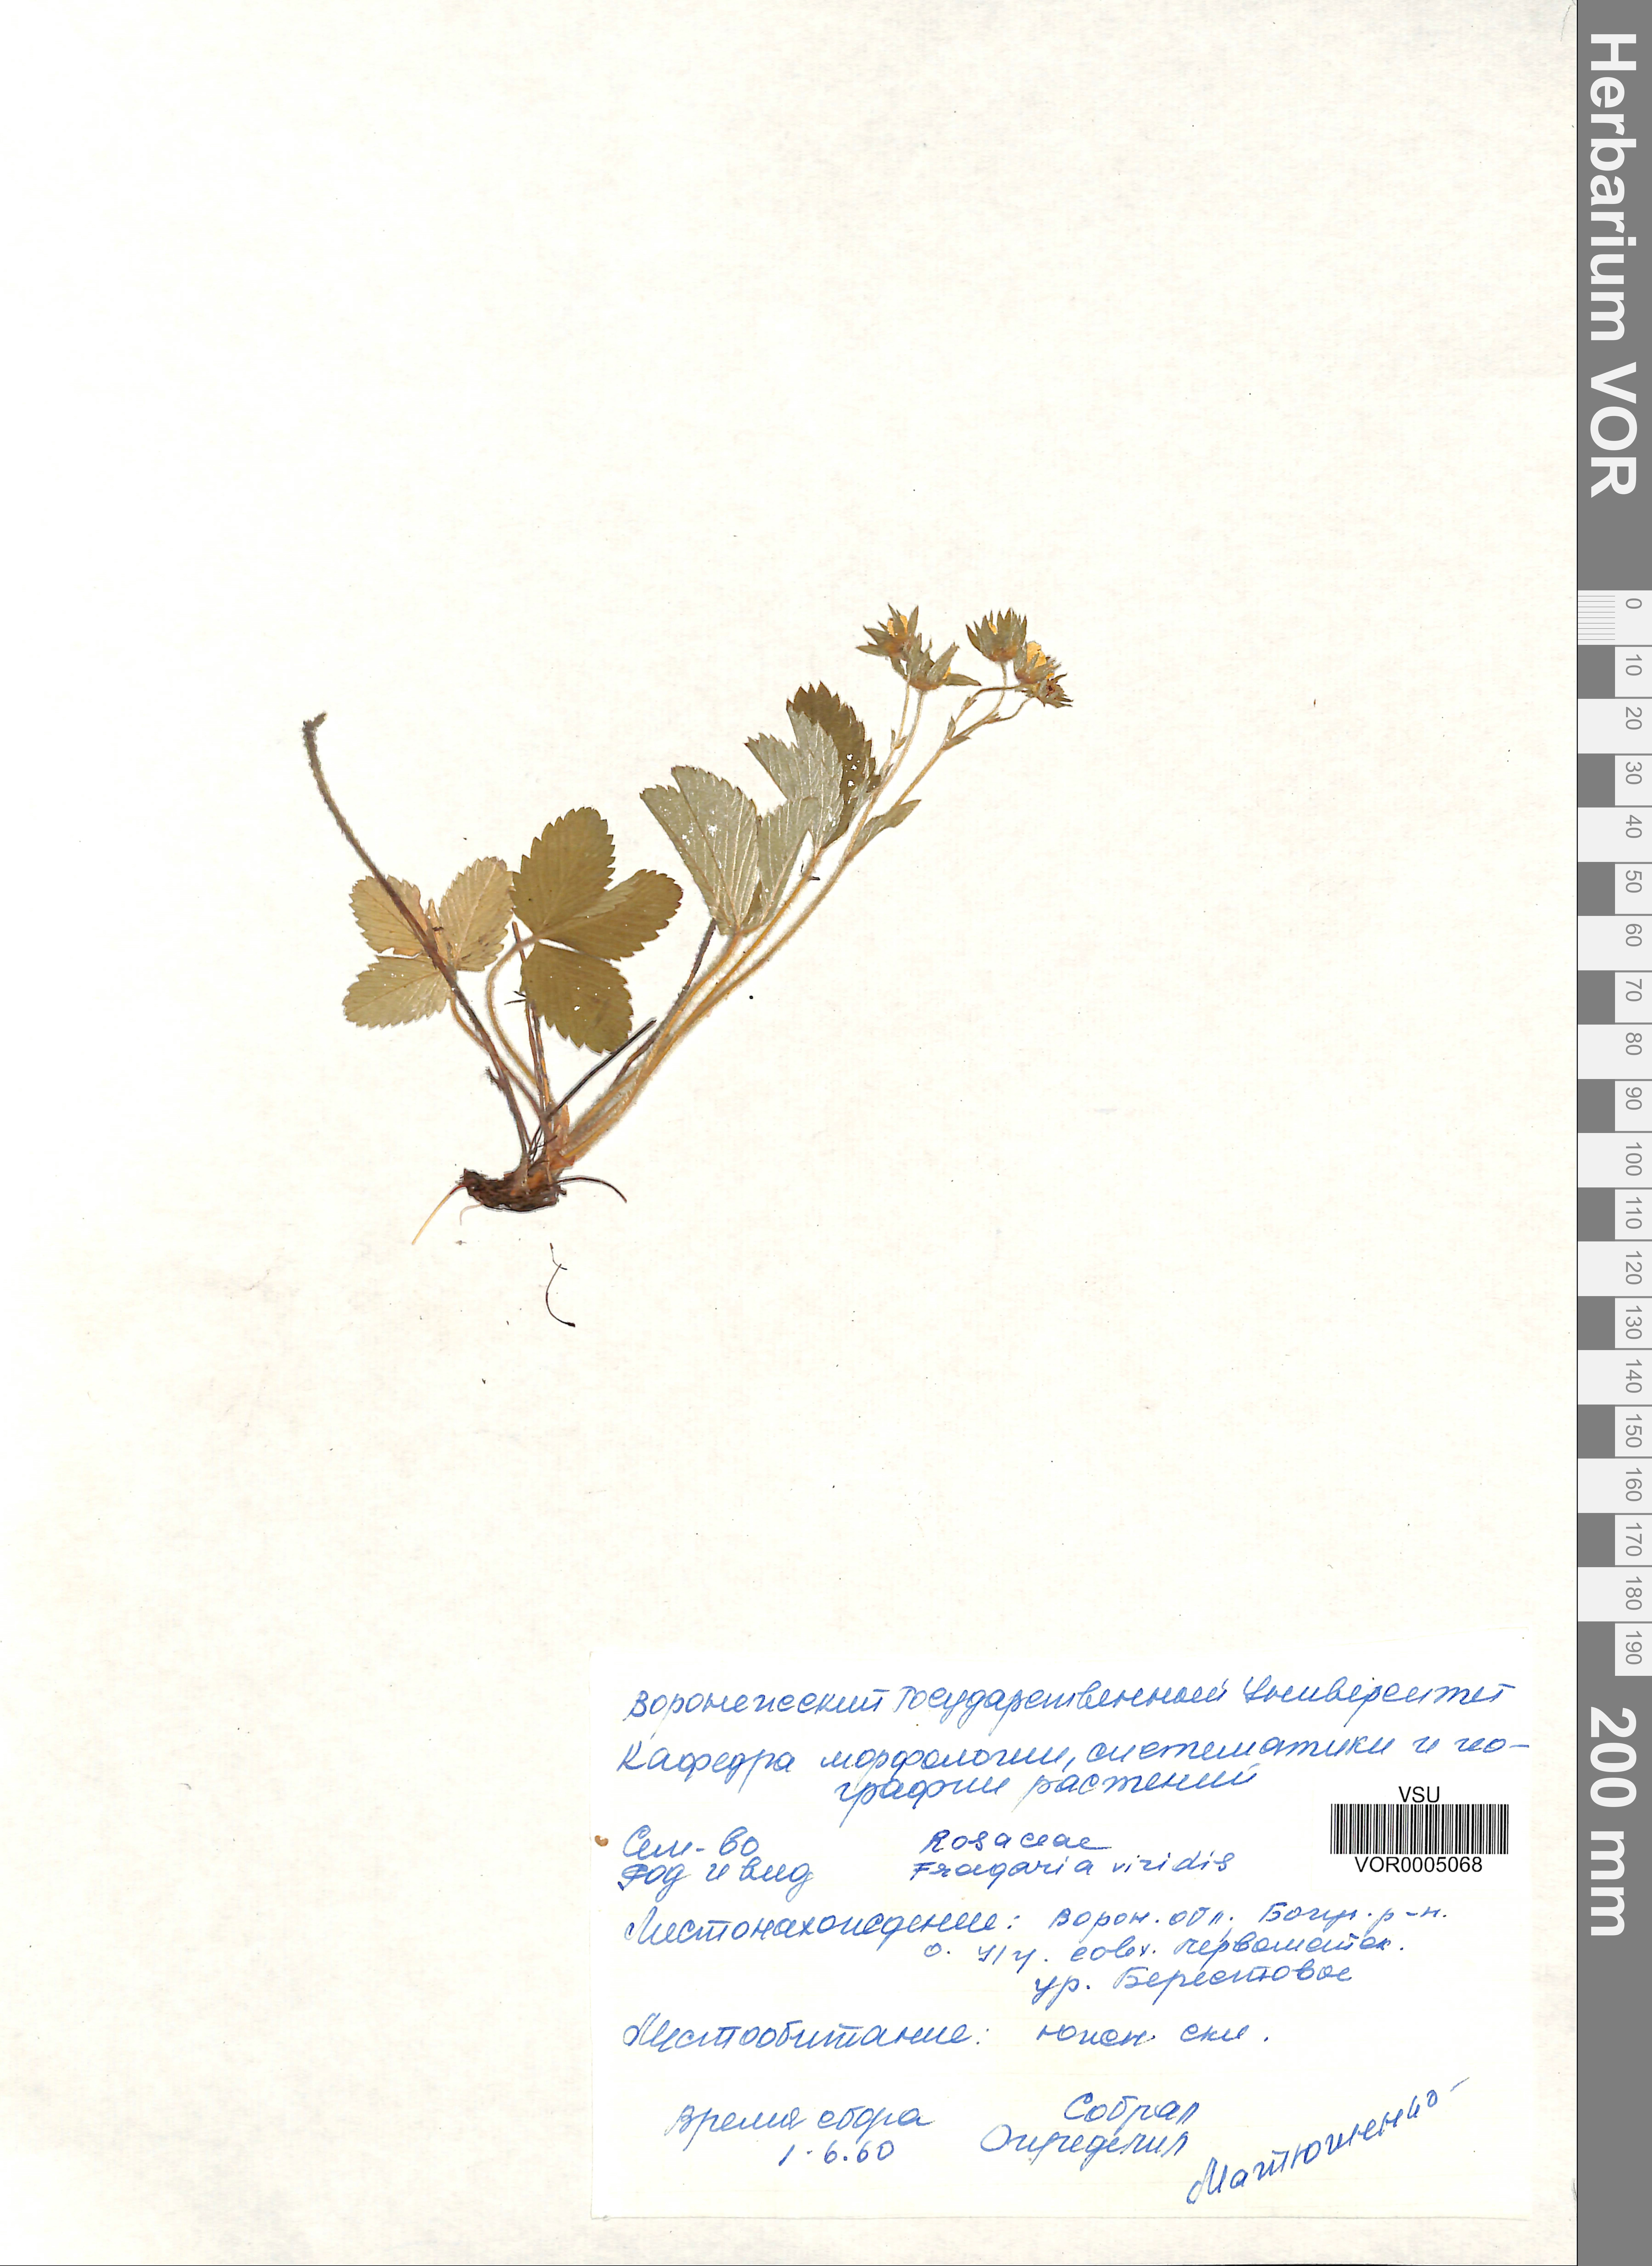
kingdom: Plantae
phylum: Tracheophyta
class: Magnoliopsida
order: Rosales
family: Rosaceae
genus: Fragaria
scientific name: Fragaria viridis
